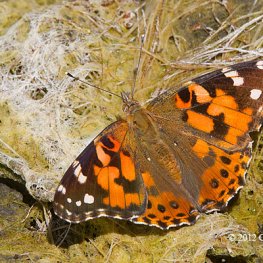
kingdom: Animalia
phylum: Arthropoda
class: Insecta
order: Lepidoptera
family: Nymphalidae
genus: Vanessa
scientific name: Vanessa cardui
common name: Painted Lady
